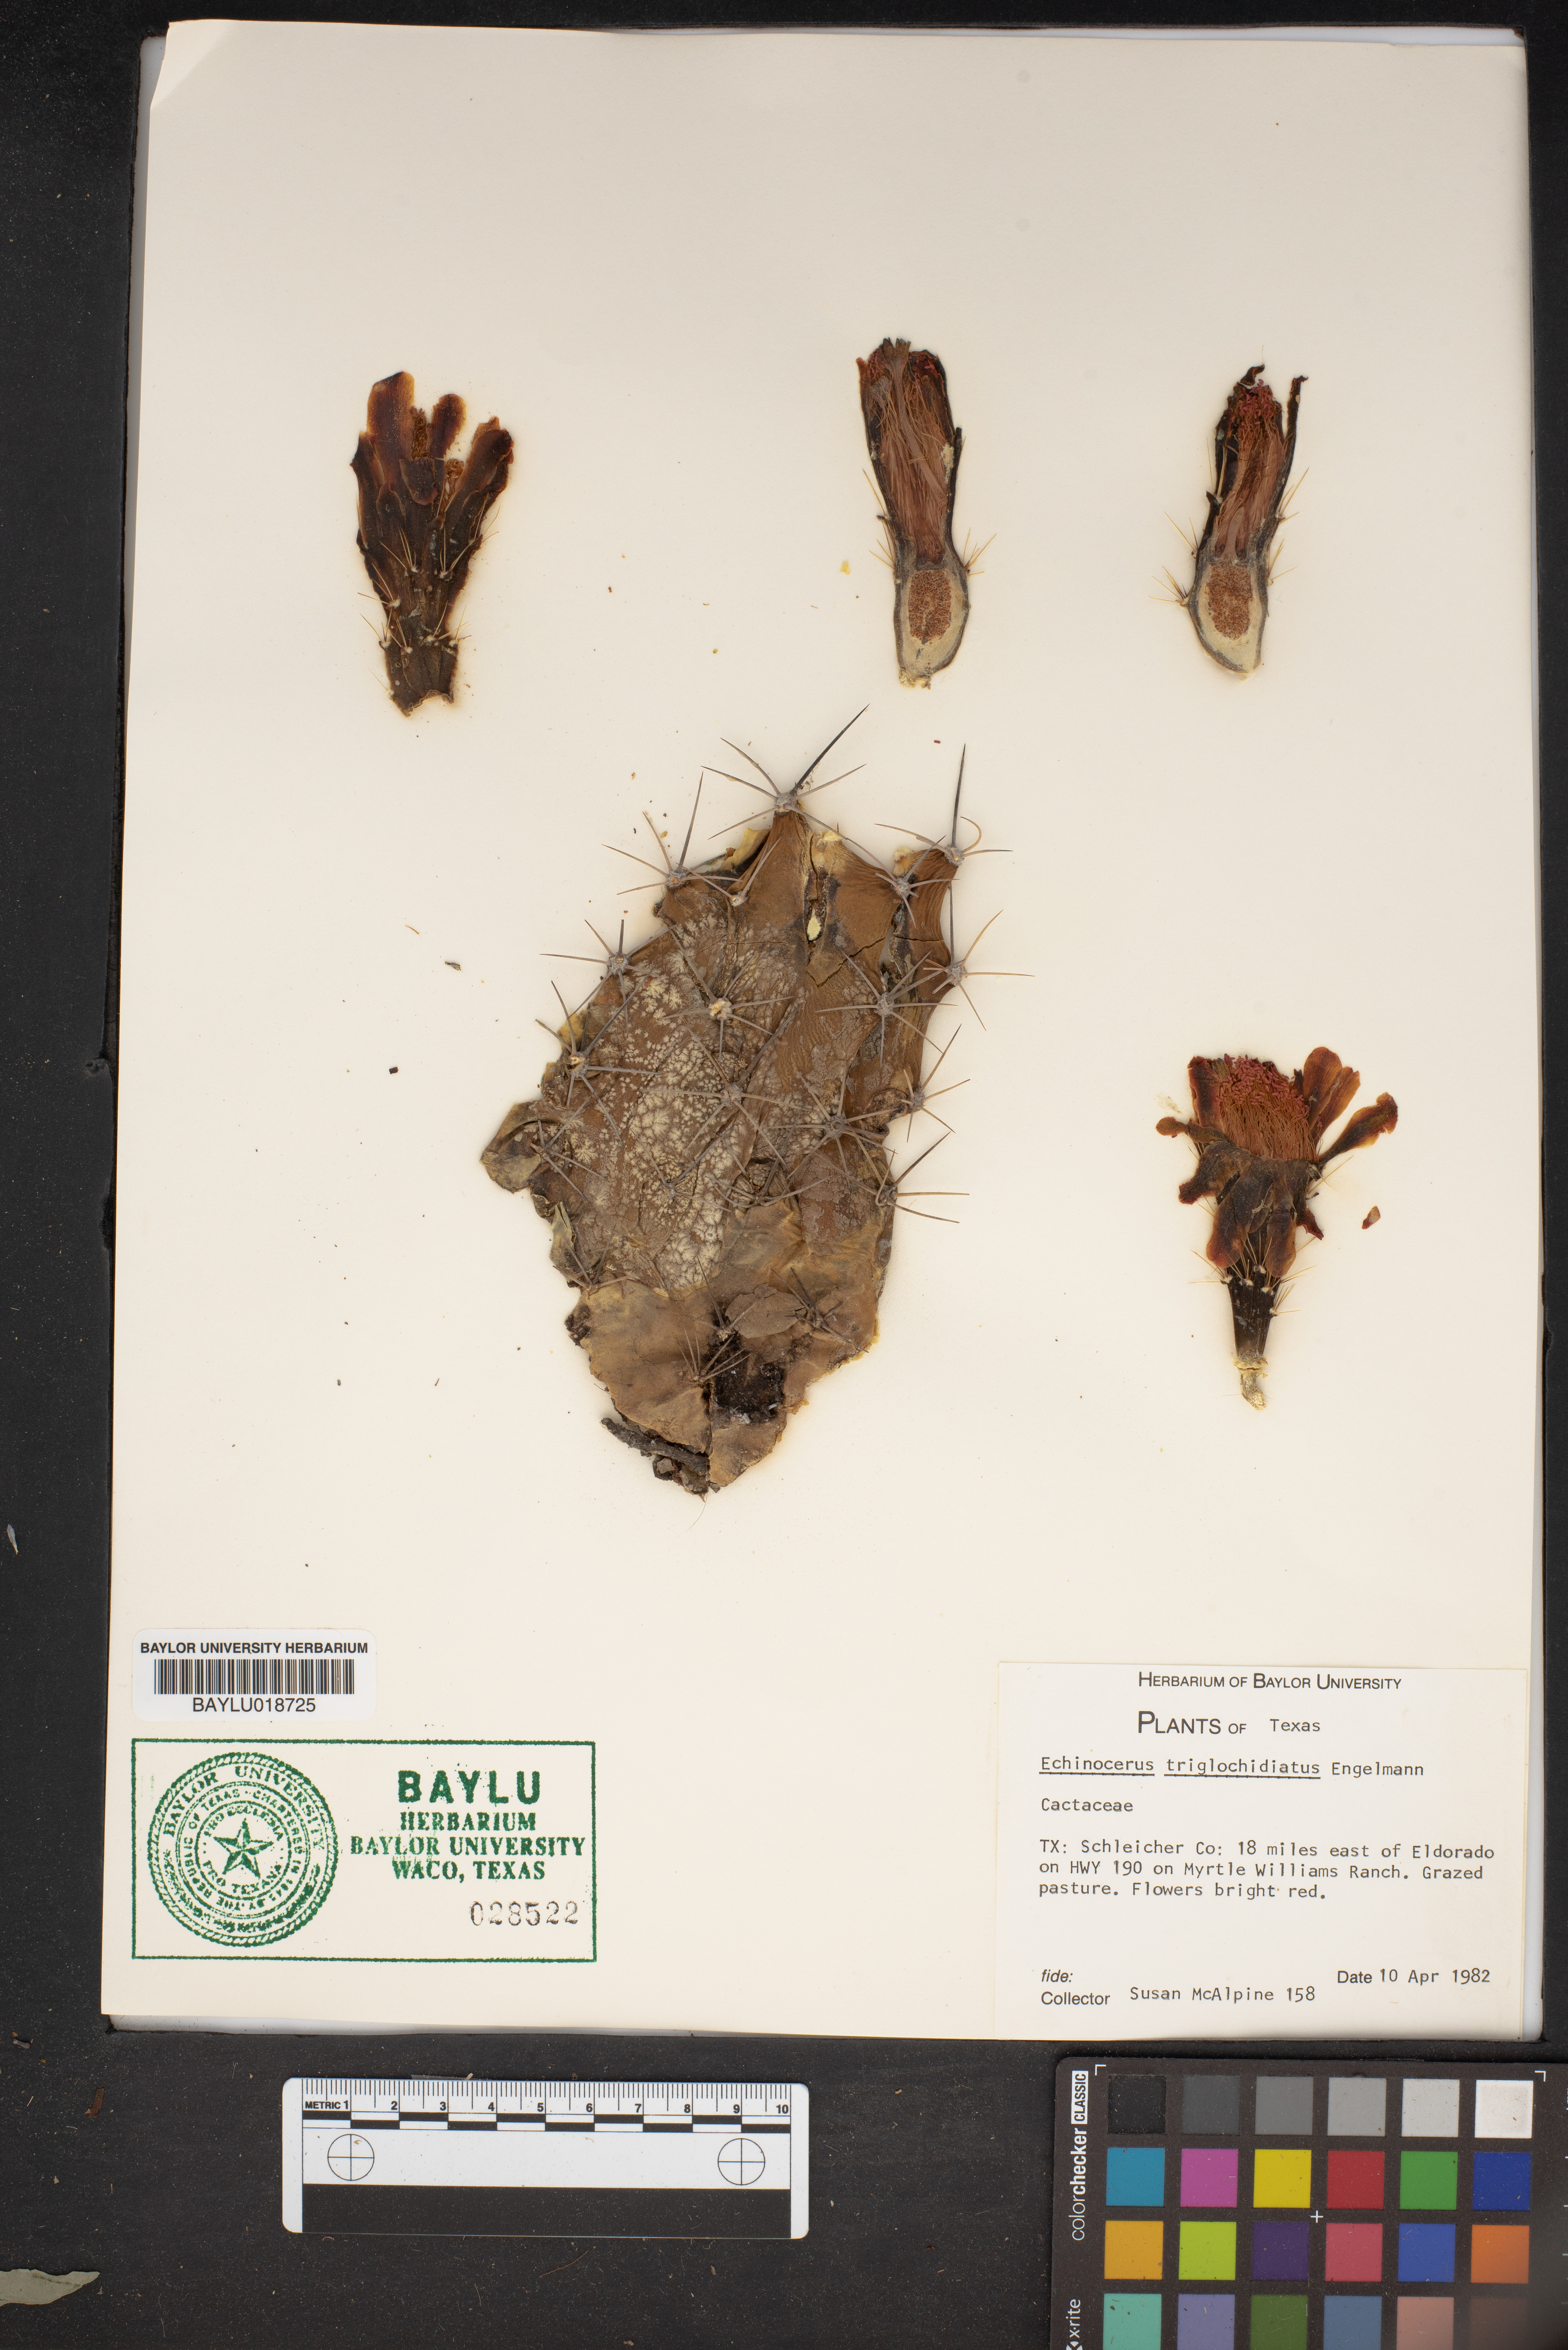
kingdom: Plantae
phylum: Tracheophyta
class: Magnoliopsida
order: Caryophyllales
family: Cactaceae
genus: Echinocereus
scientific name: Echinocereus triglochidiatus
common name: Claretcup hedgehog
